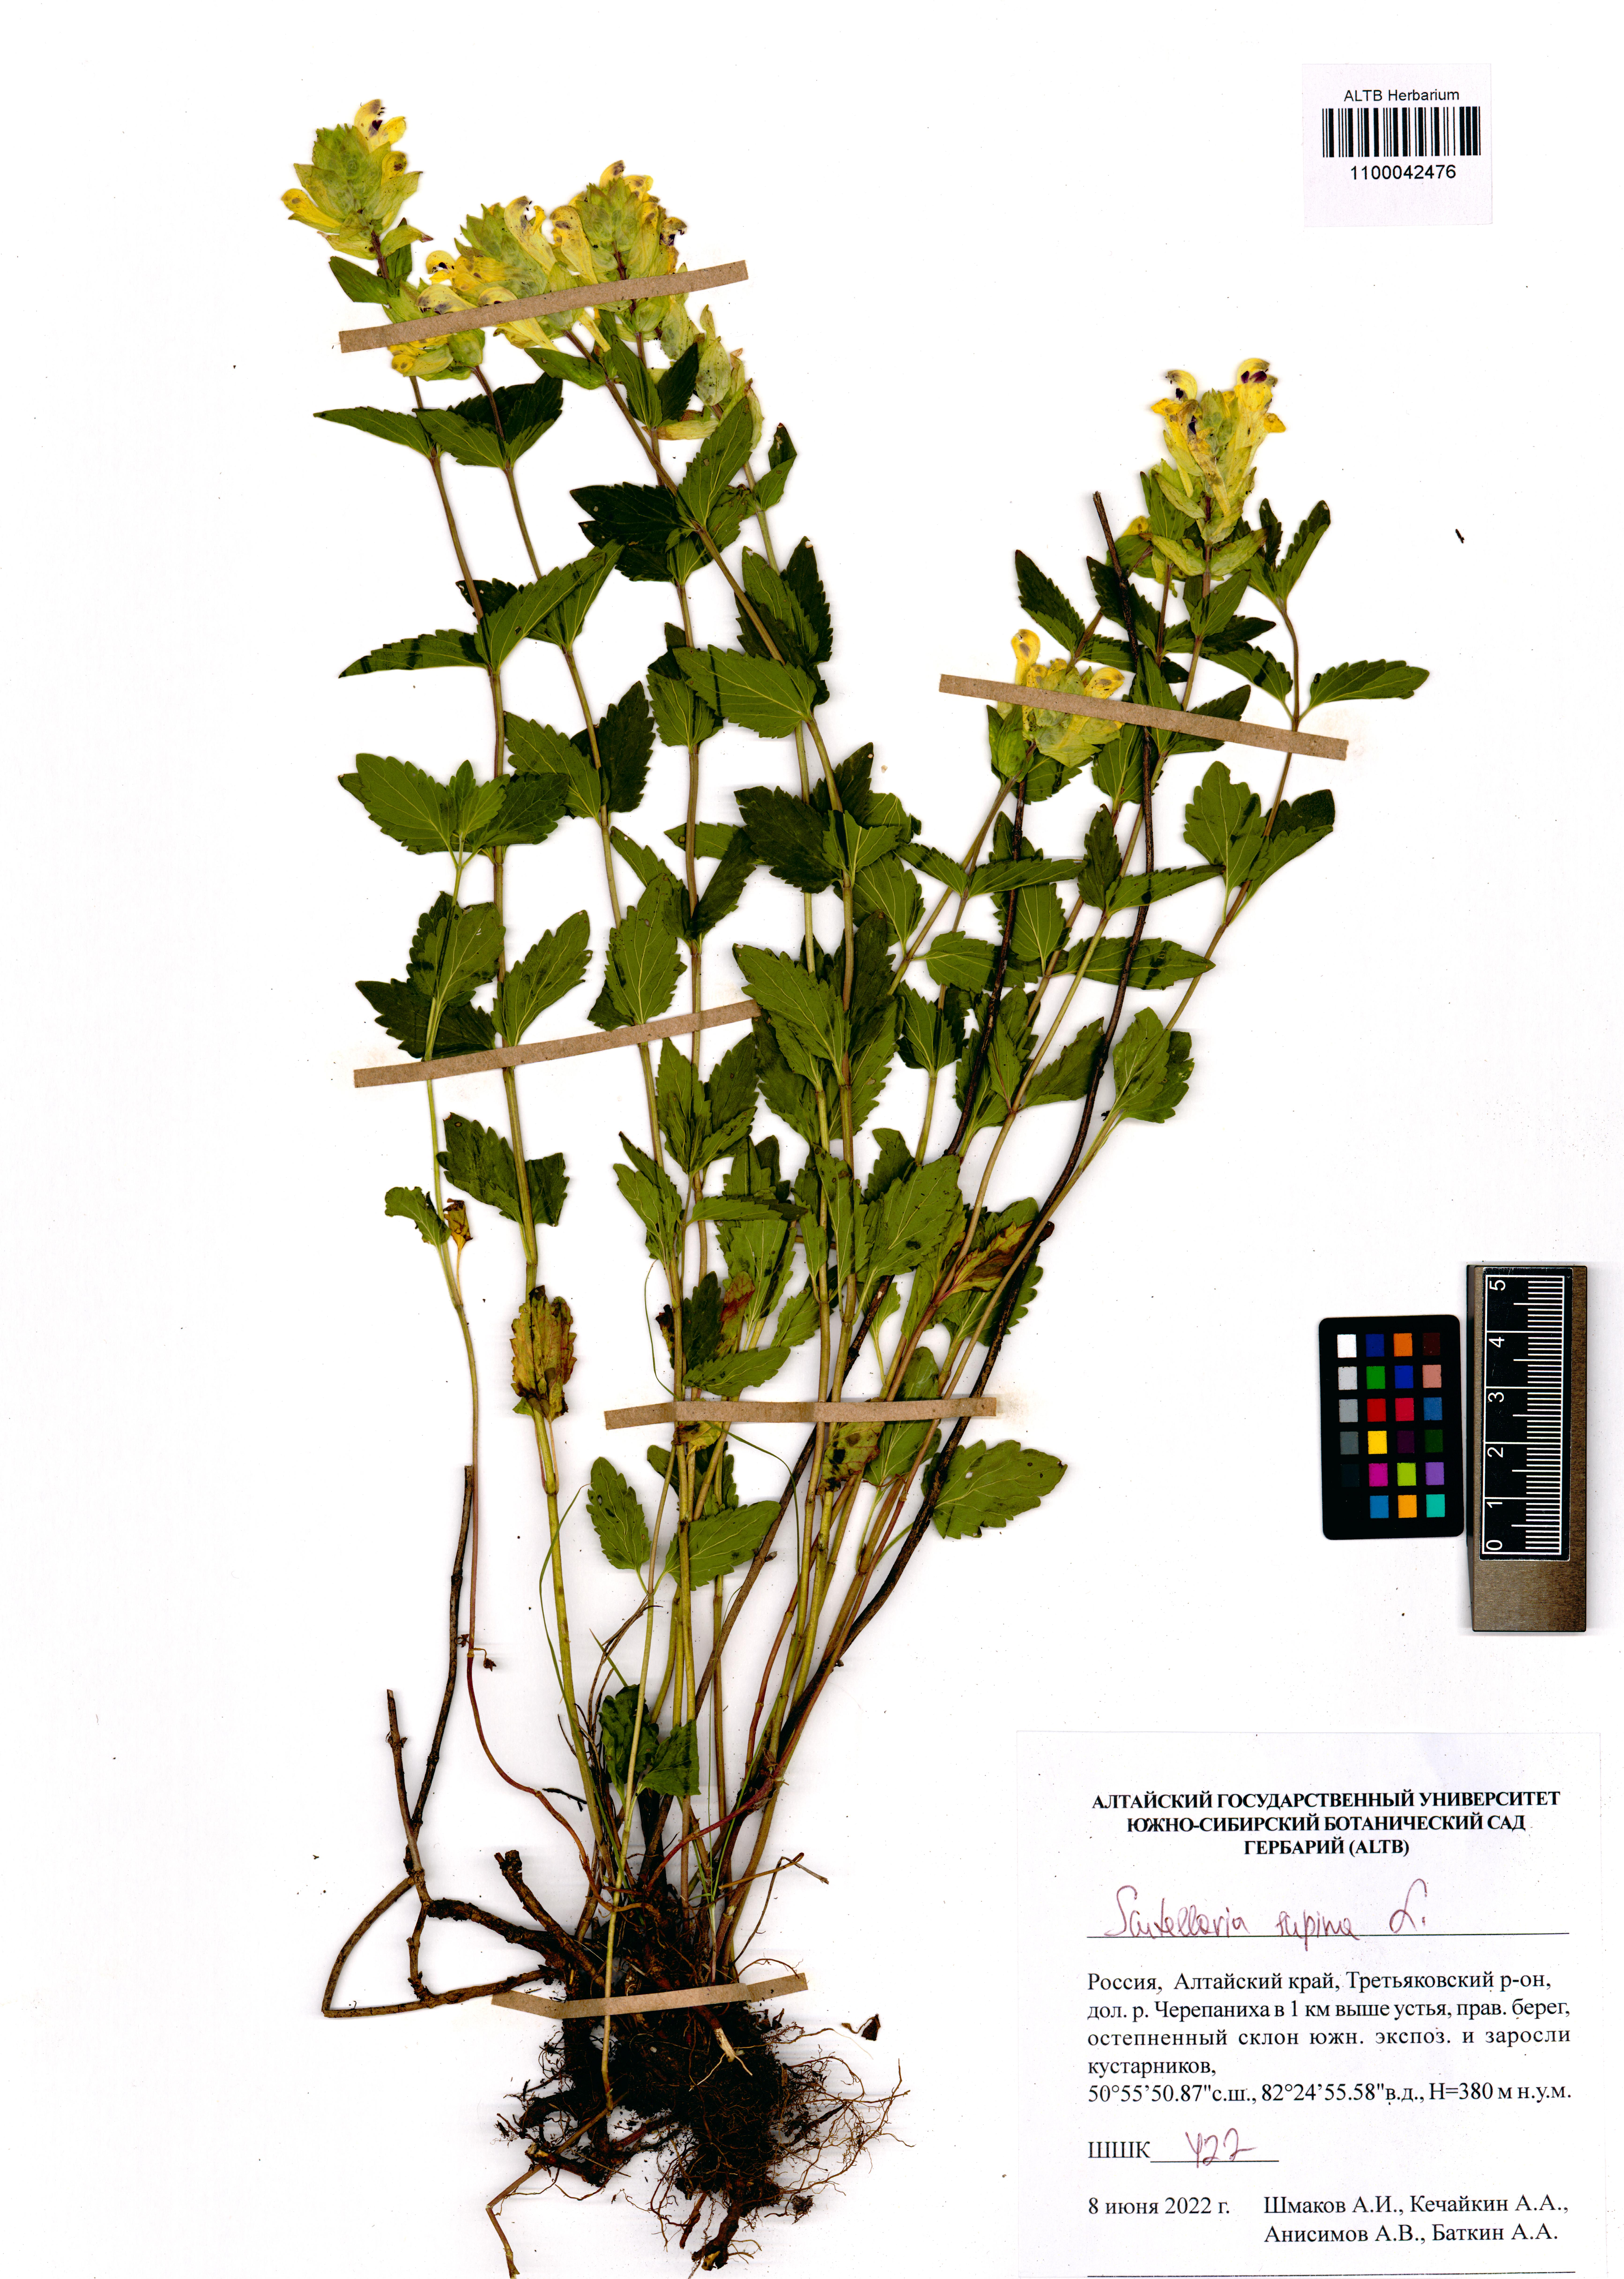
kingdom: Plantae
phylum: Tracheophyta
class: Magnoliopsida
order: Lamiales
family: Lamiaceae
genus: Scutellaria
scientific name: Scutellaria supina
